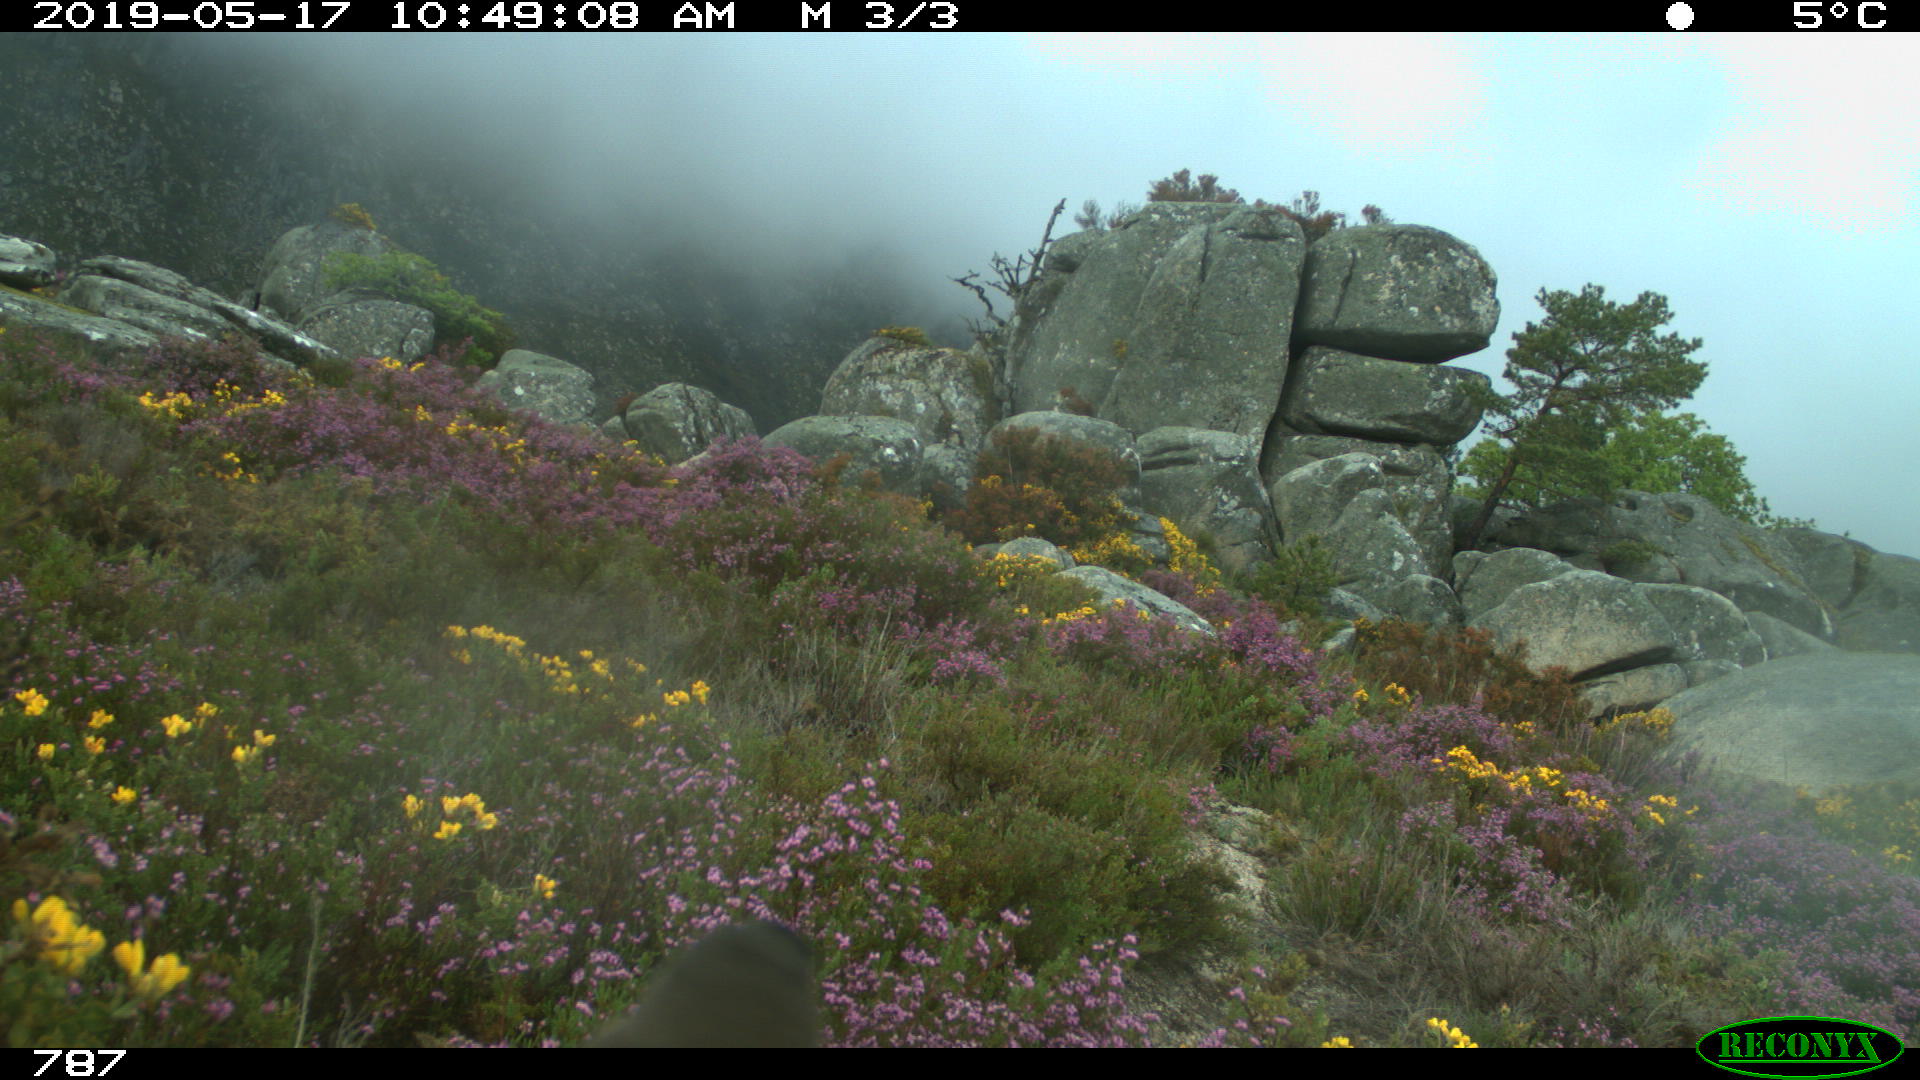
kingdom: Animalia
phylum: Chordata
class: Aves
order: Passeriformes
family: Sylviidae
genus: Sylvia
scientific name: Sylvia undata
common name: Dartford warbler
